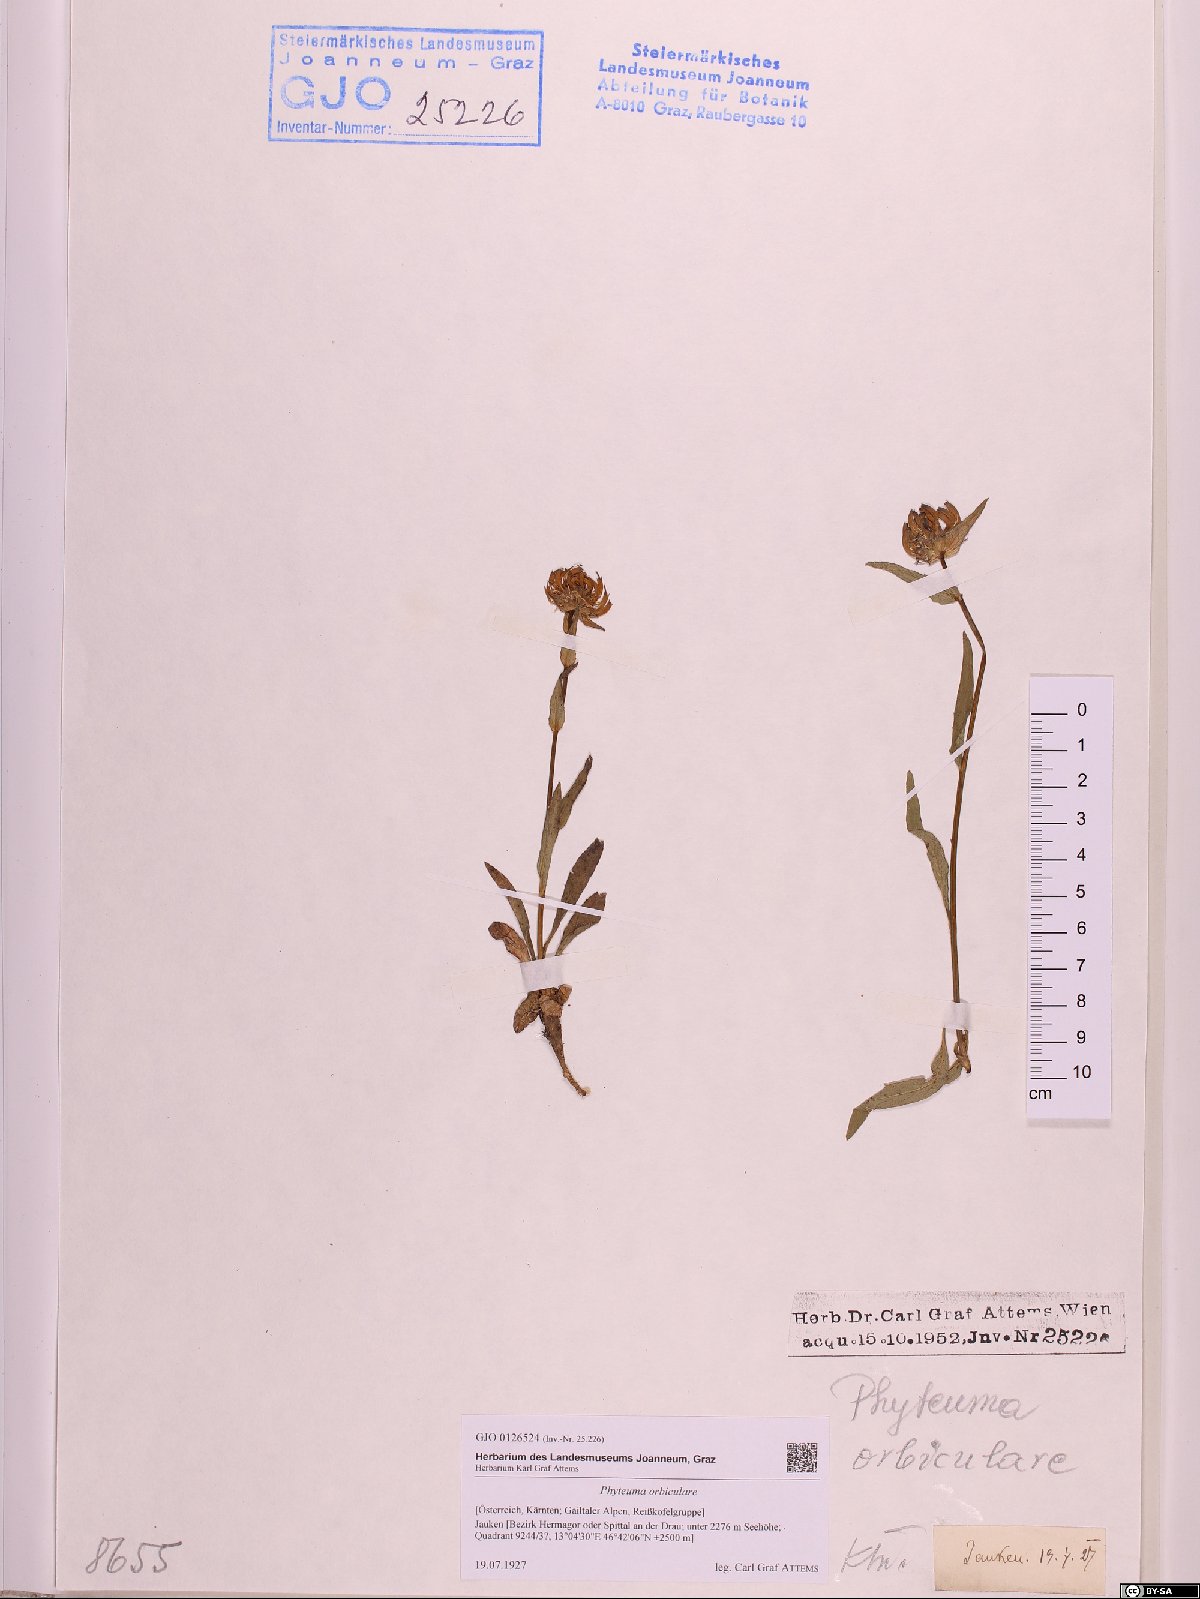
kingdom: Plantae
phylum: Tracheophyta
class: Magnoliopsida
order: Asterales
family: Campanulaceae
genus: Phyteuma
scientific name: Phyteuma orbiculare
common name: Round-headed rampion
